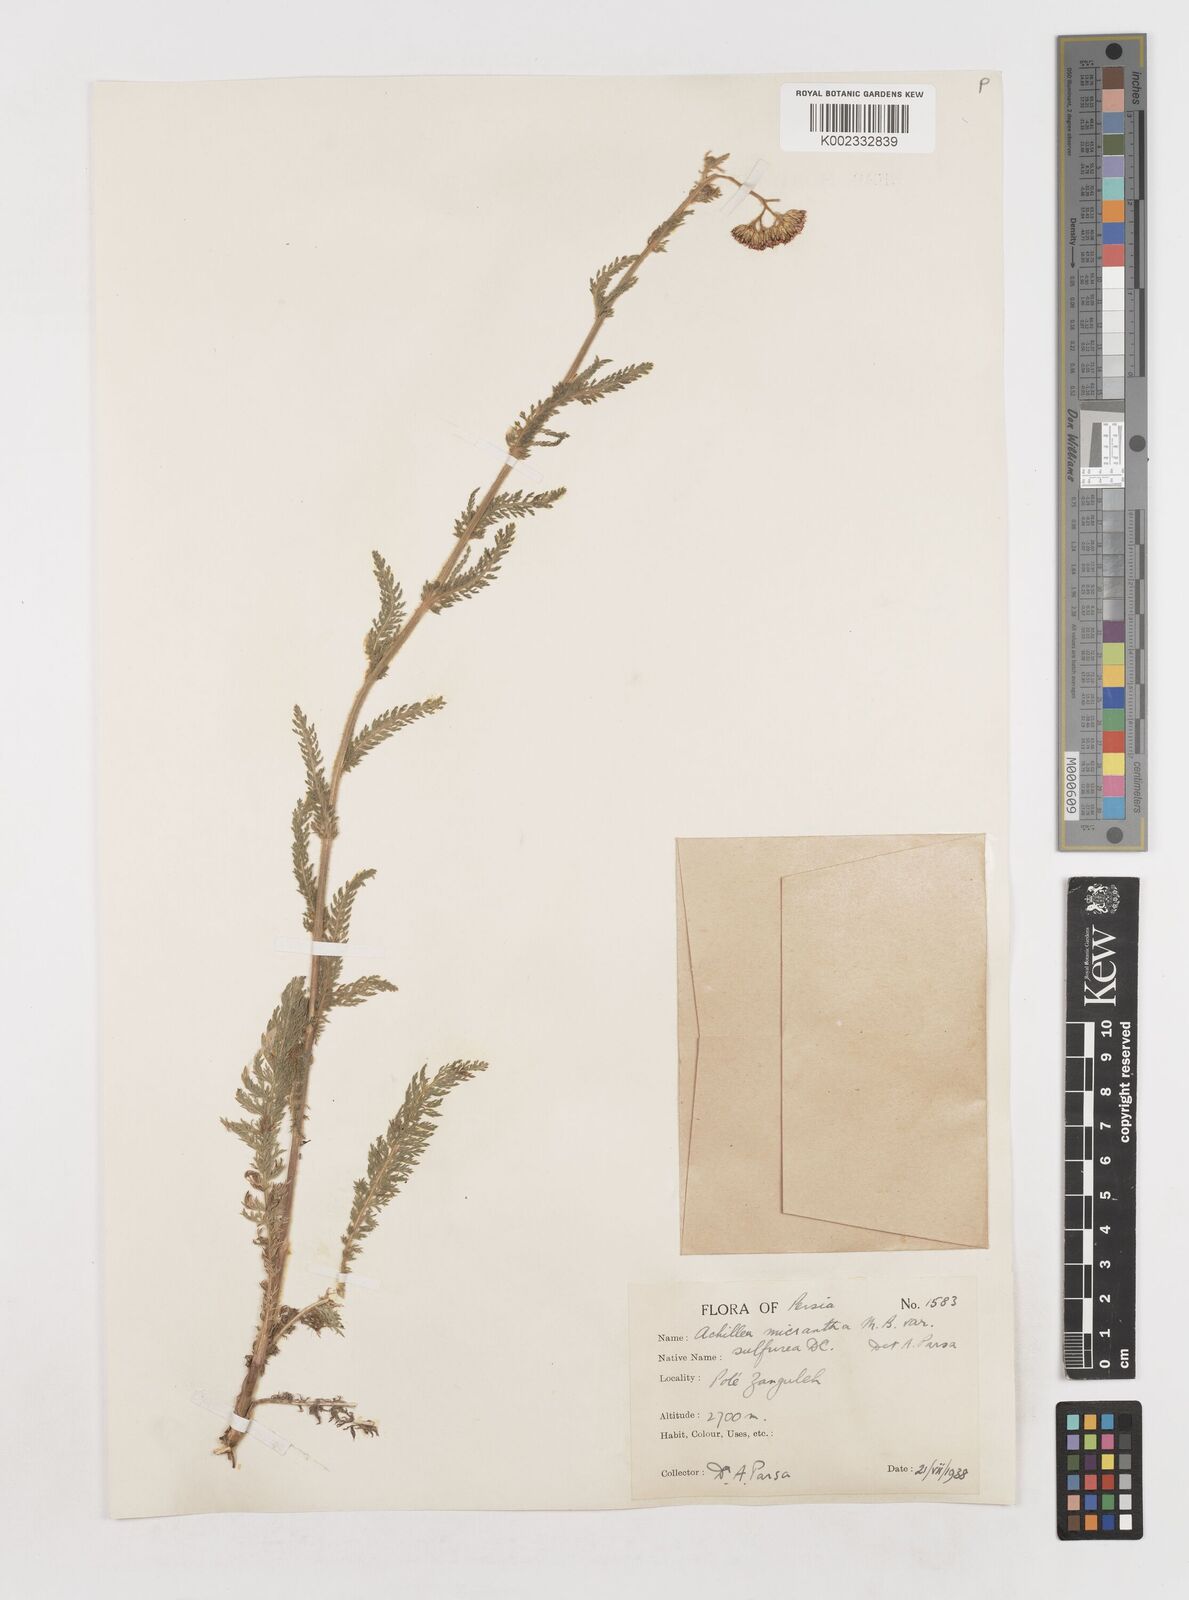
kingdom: Plantae
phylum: Tracheophyta
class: Magnoliopsida
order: Asterales
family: Asteraceae
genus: Achillea
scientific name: Achillea micrantha
